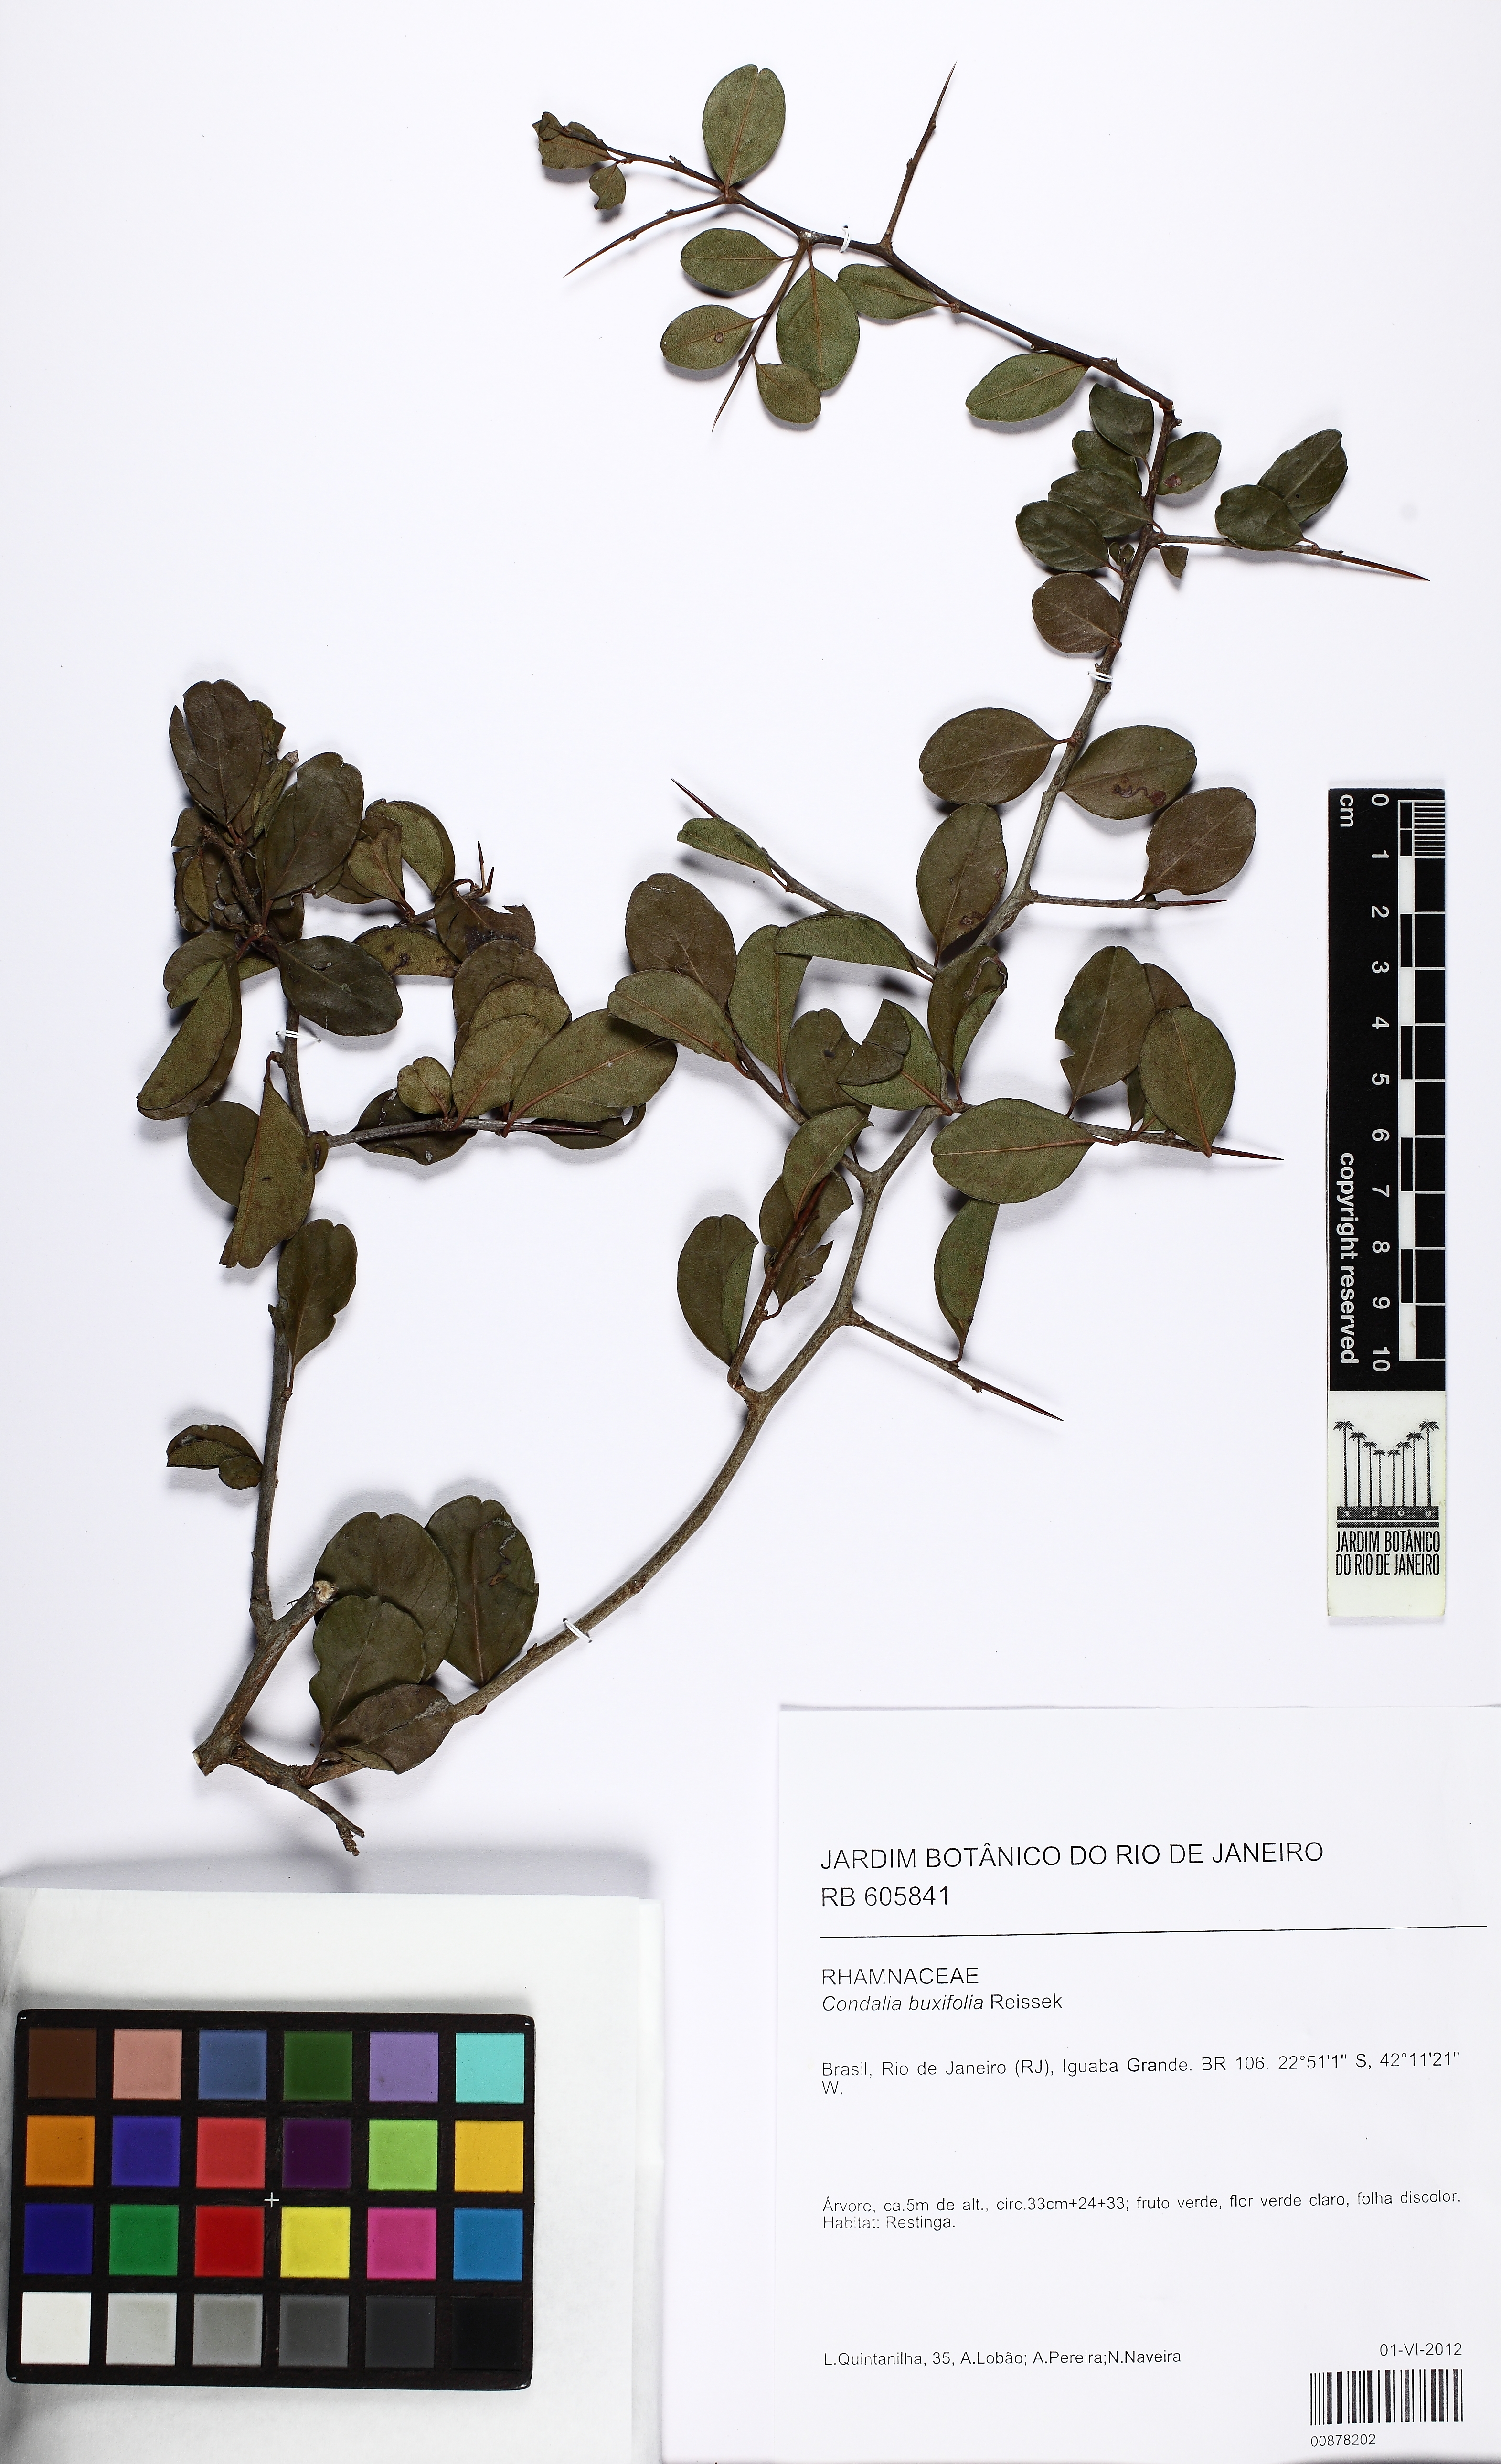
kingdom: Plantae
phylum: Tracheophyta
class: Magnoliopsida
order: Rosales
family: Rhamnaceae
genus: Condalia
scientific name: Condalia buxifolia
